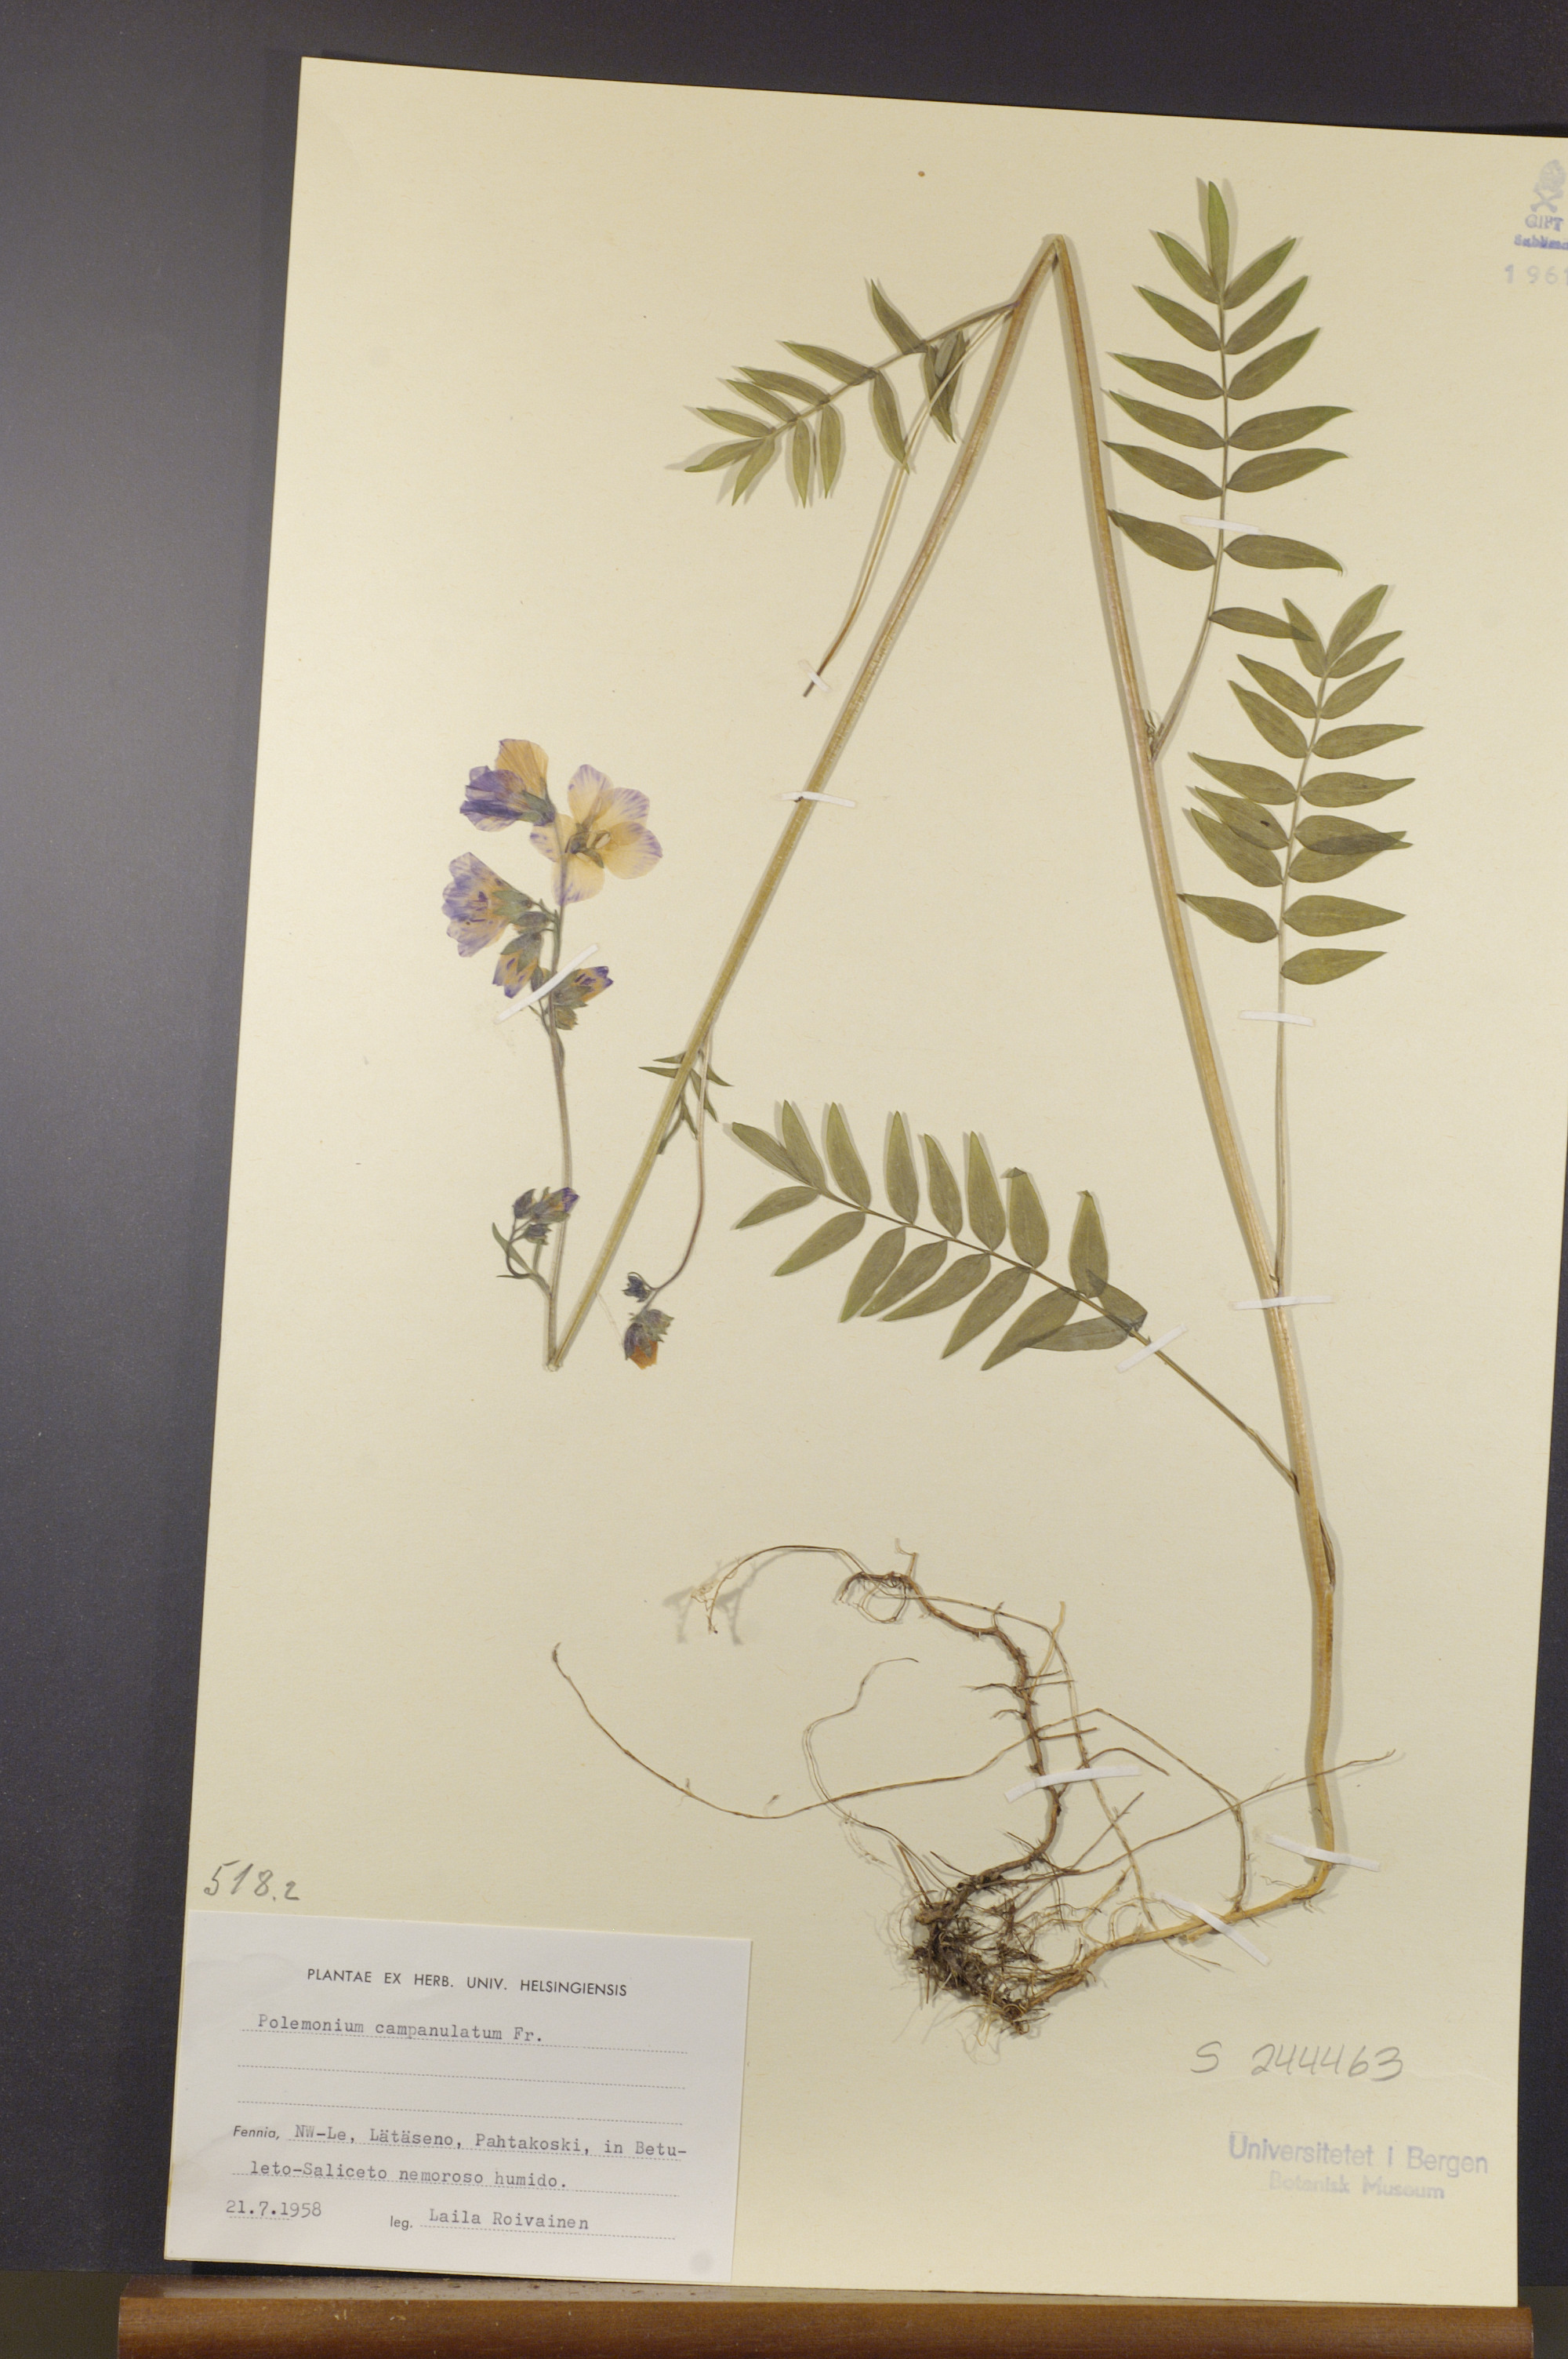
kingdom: Plantae
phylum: Tracheophyta
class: Magnoliopsida
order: Ericales
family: Polemoniaceae
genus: Polemonium
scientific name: Polemonium villosum
